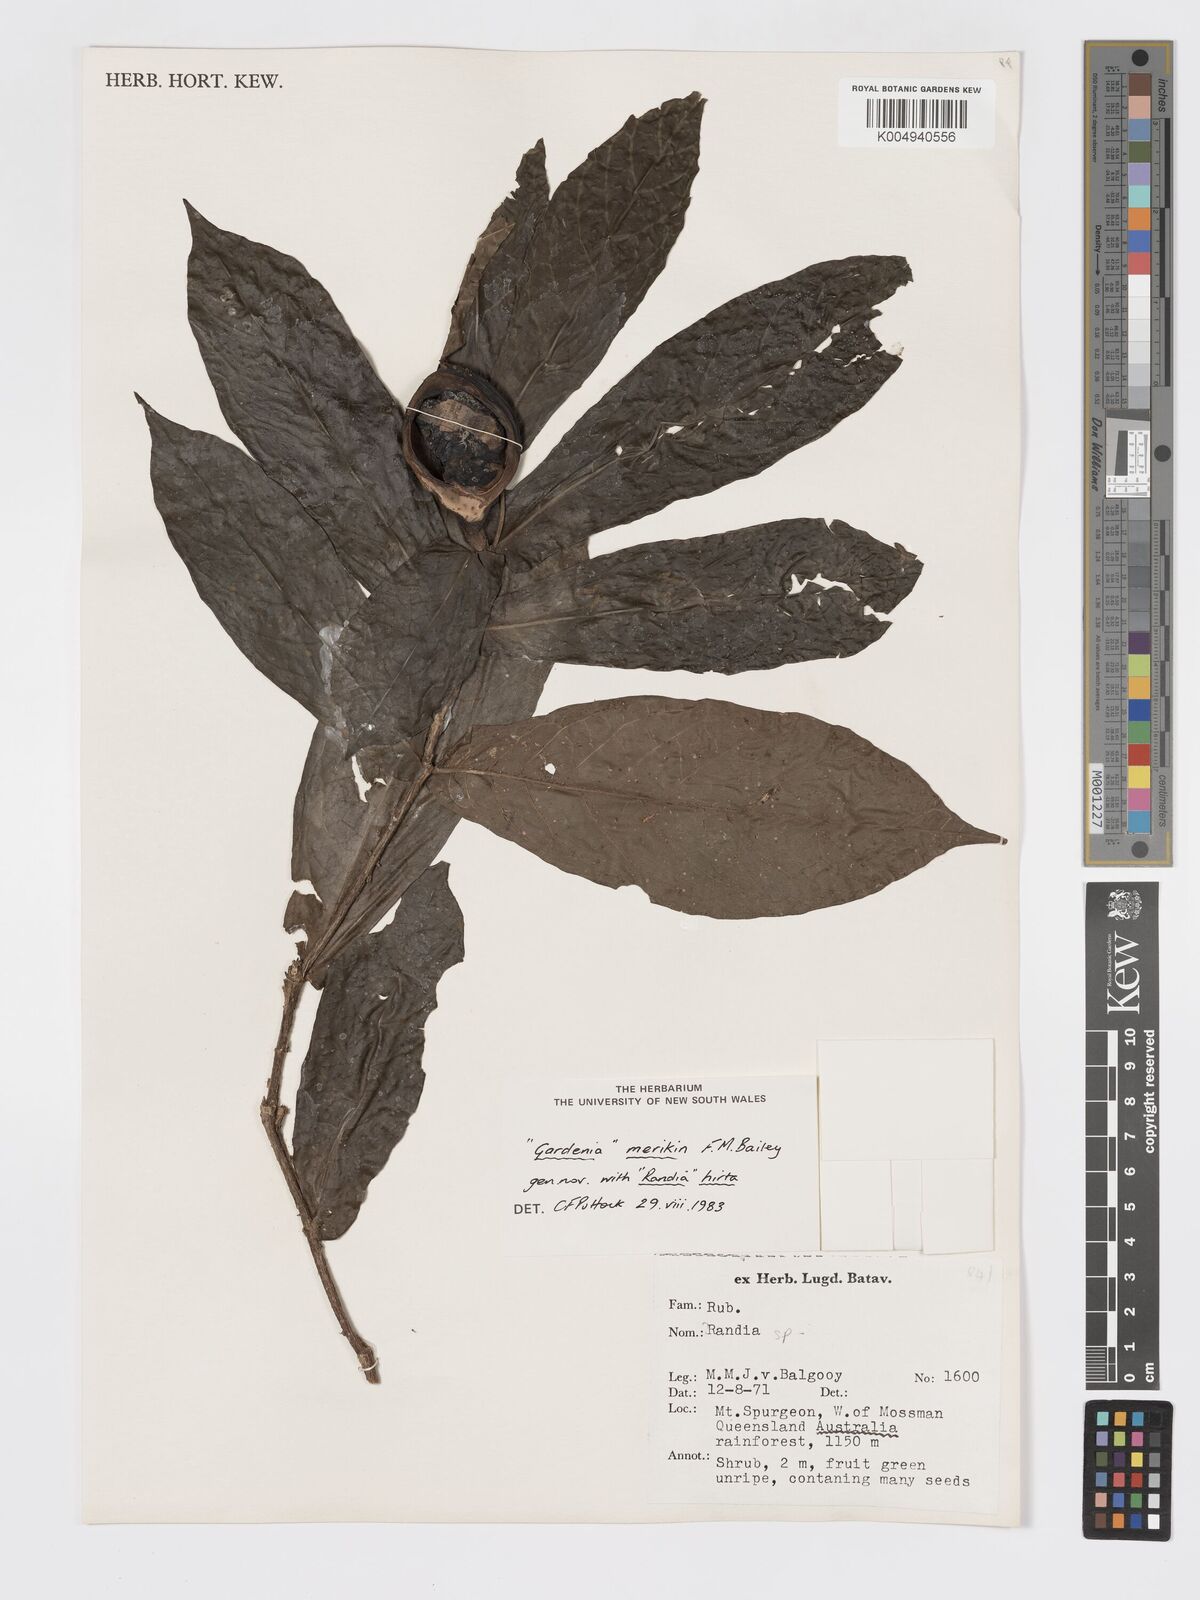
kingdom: Plantae
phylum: Tracheophyta
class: Magnoliopsida
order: Gentianales
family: Rubiaceae
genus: Atractocarpus
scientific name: Atractocarpus merikin
